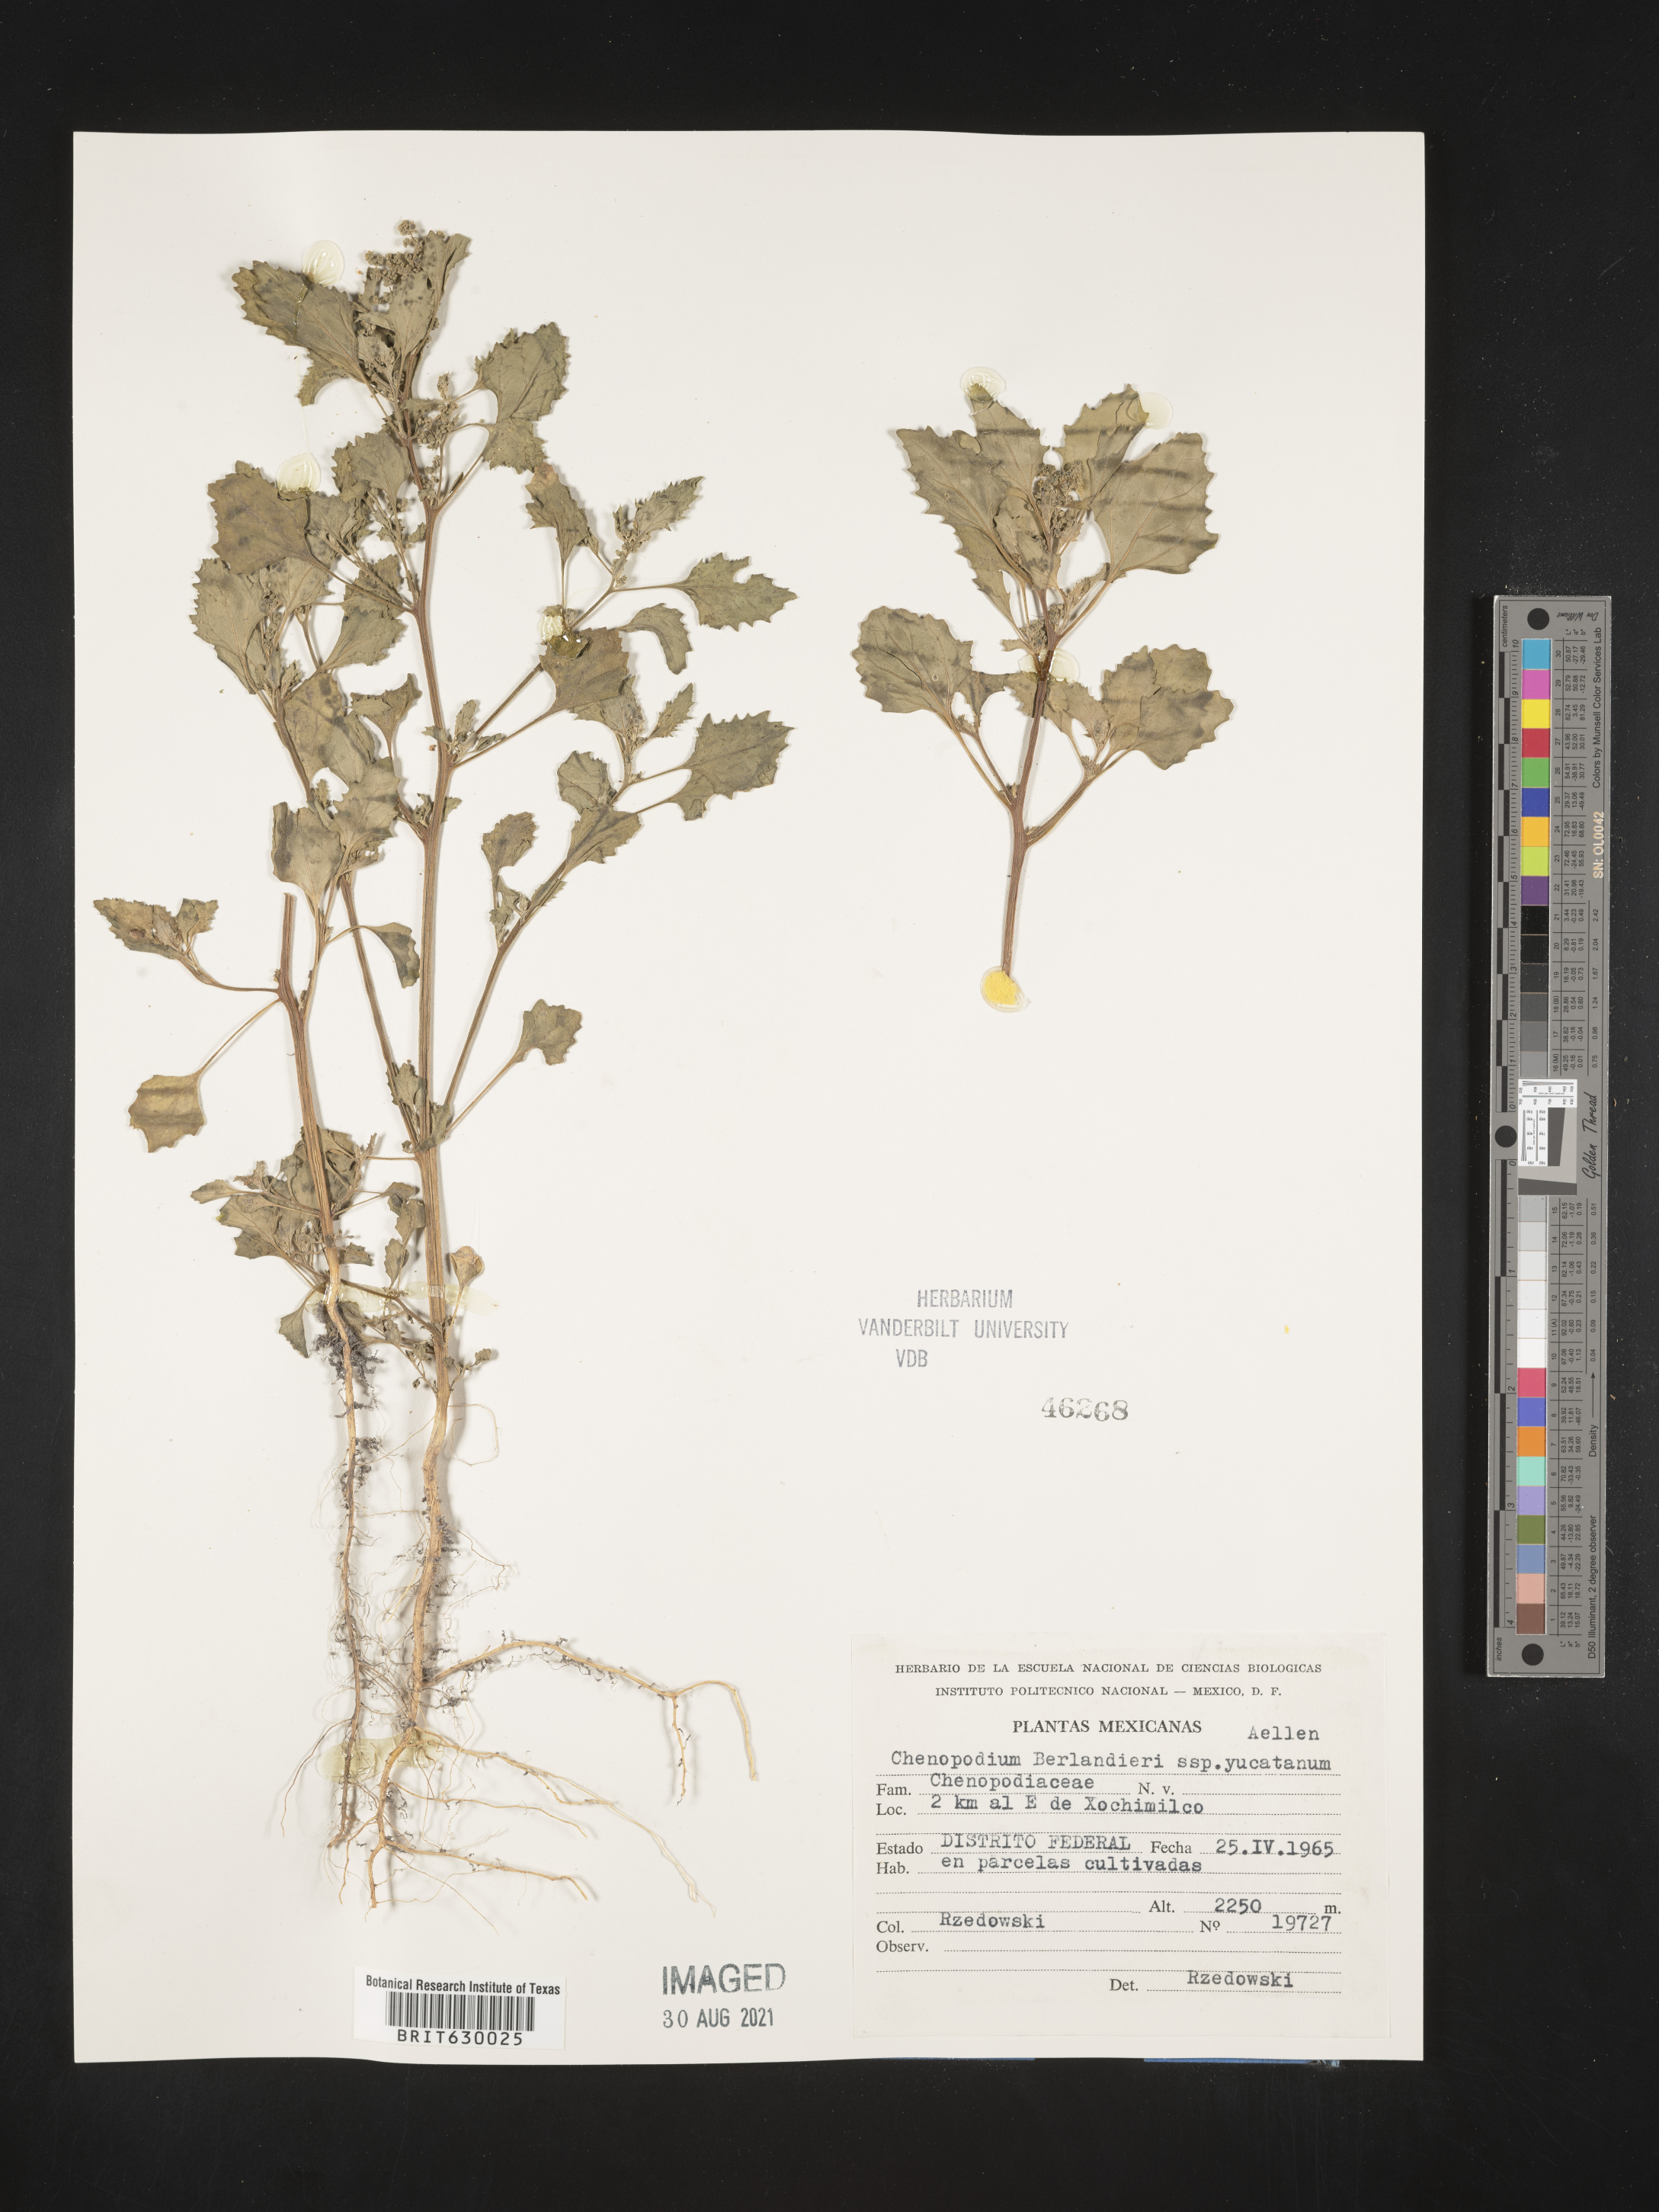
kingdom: Plantae
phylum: Tracheophyta
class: Magnoliopsida
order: Caryophyllales
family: Amaranthaceae
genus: Chenopodium
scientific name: Chenopodium
